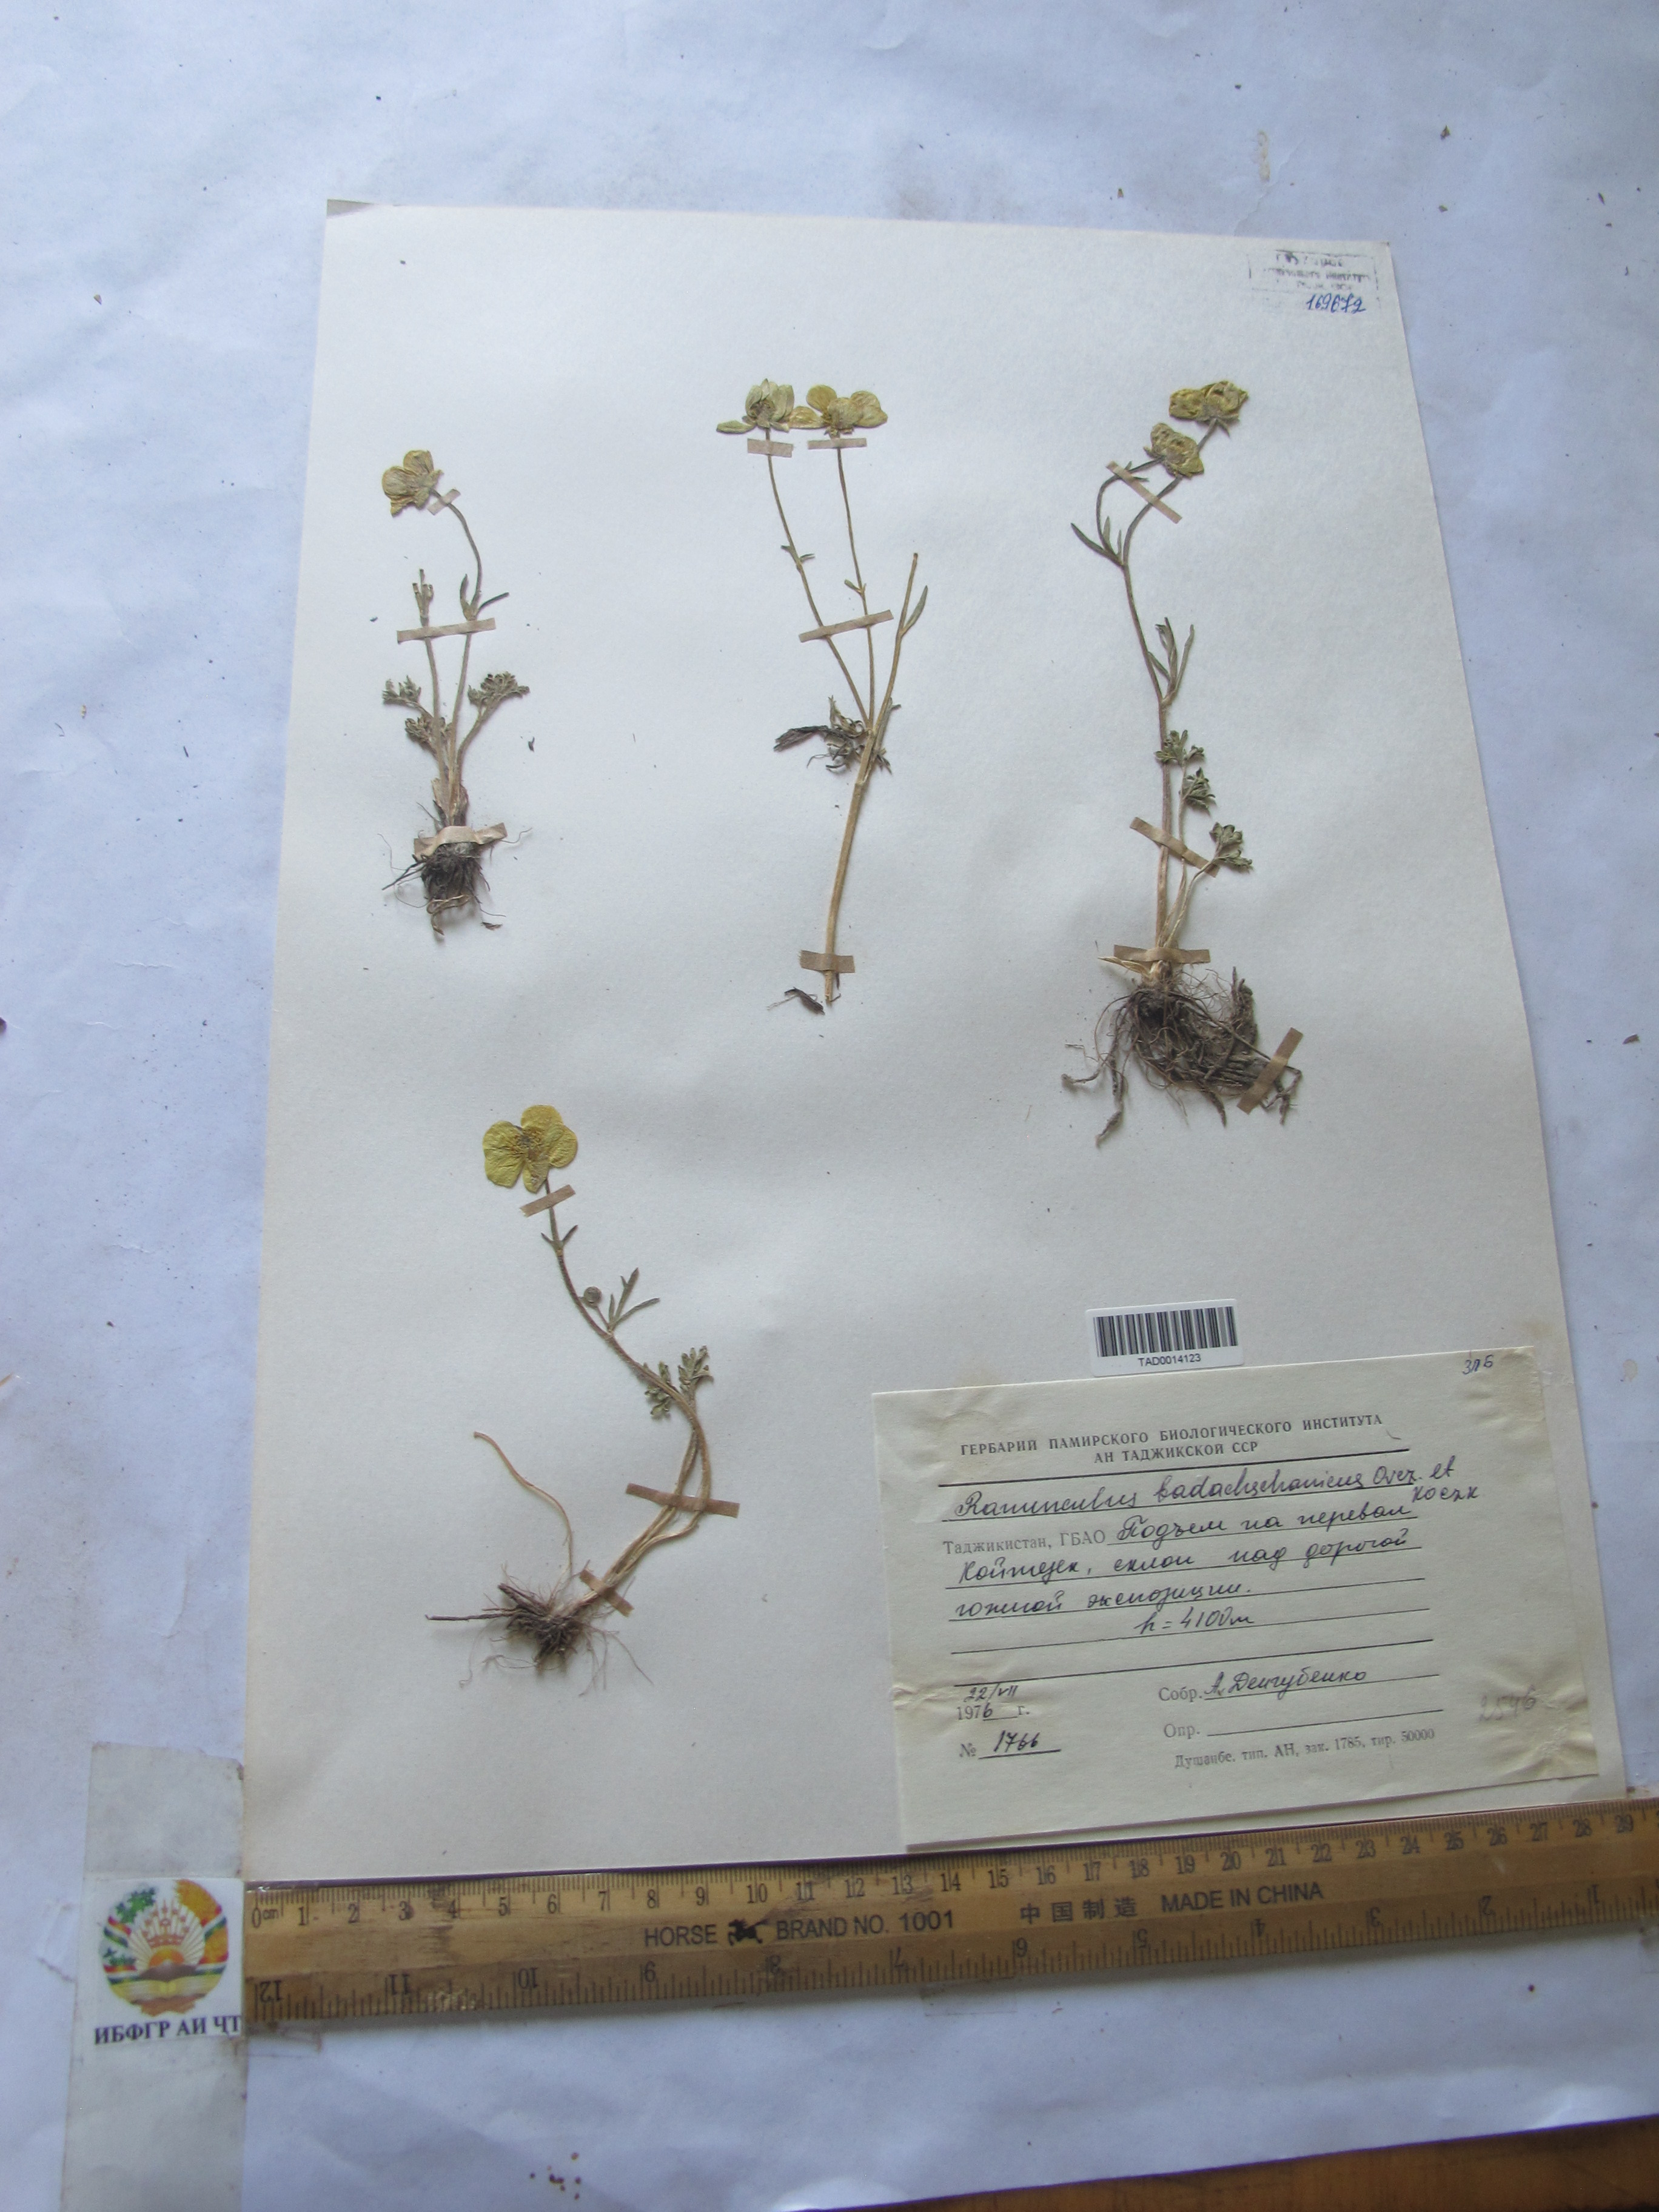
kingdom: Plantae
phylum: Tracheophyta
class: Magnoliopsida
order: Ranunculales
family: Ranunculaceae
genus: Ranunculus
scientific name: Ranunculus badachschanicus
